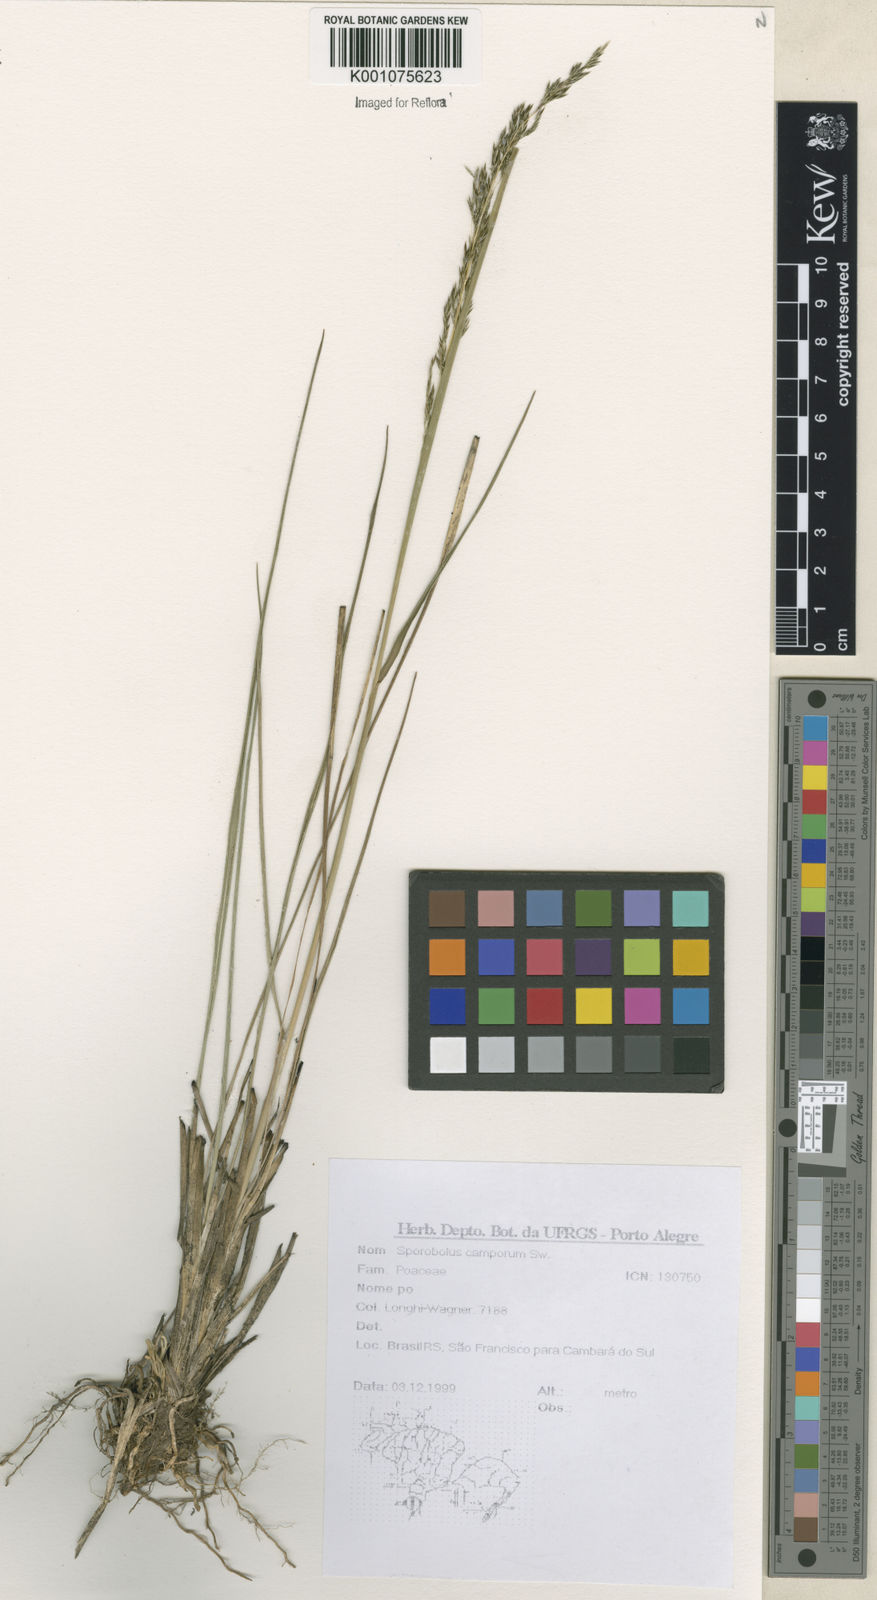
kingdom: Plantae
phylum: Tracheophyta
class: Liliopsida
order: Poales
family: Poaceae
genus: Sporobolus
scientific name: Sporobolus camporum
